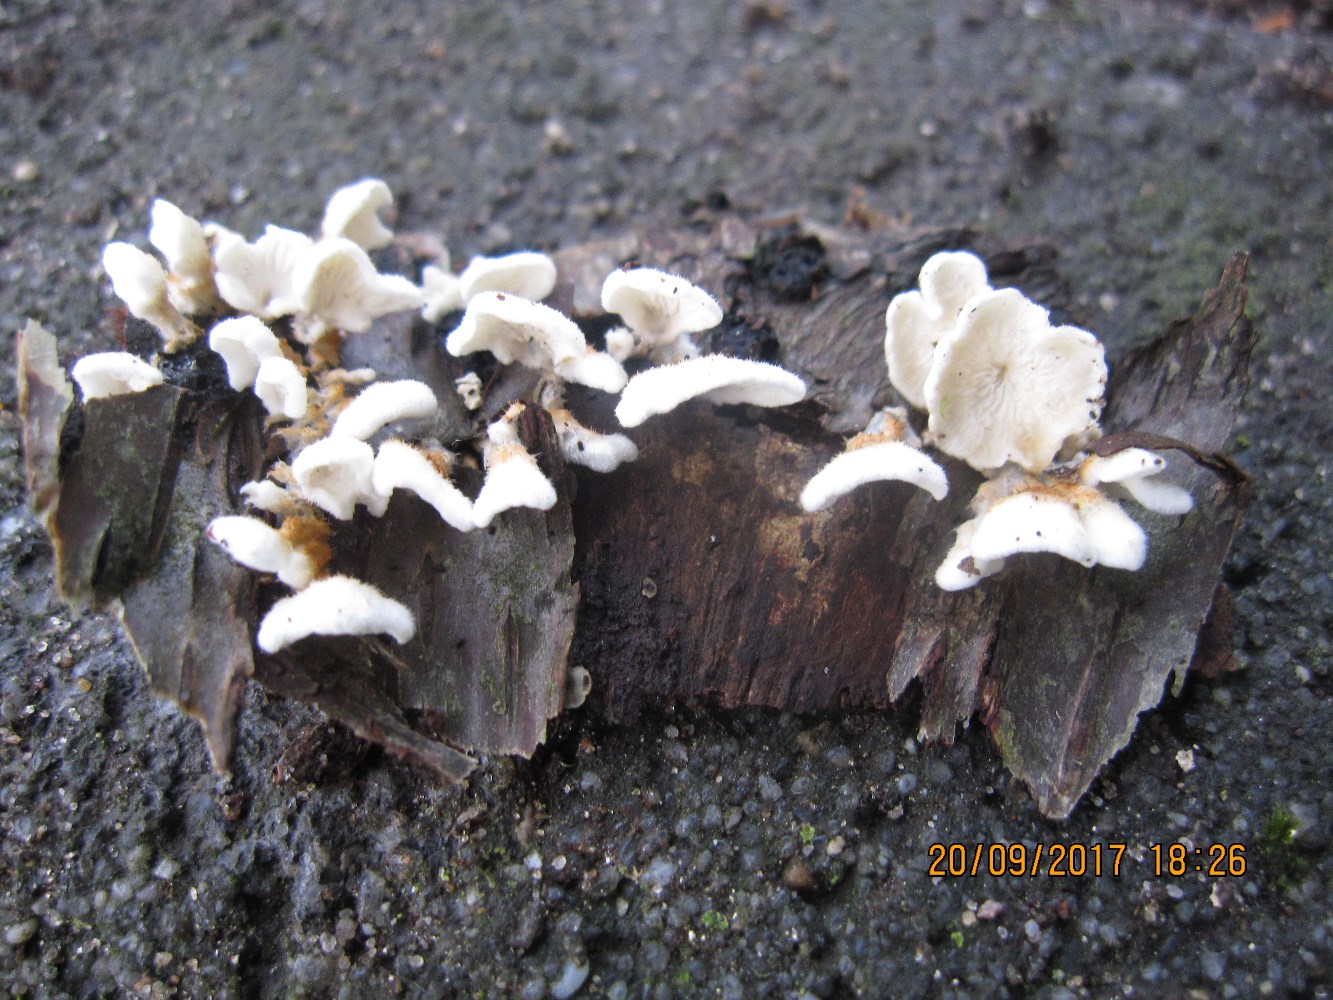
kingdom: Fungi
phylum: Basidiomycota
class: Agaricomycetes
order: Amylocorticiales
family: Amylocorticiaceae
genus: Plicaturopsis
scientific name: Plicaturopsis crispa
